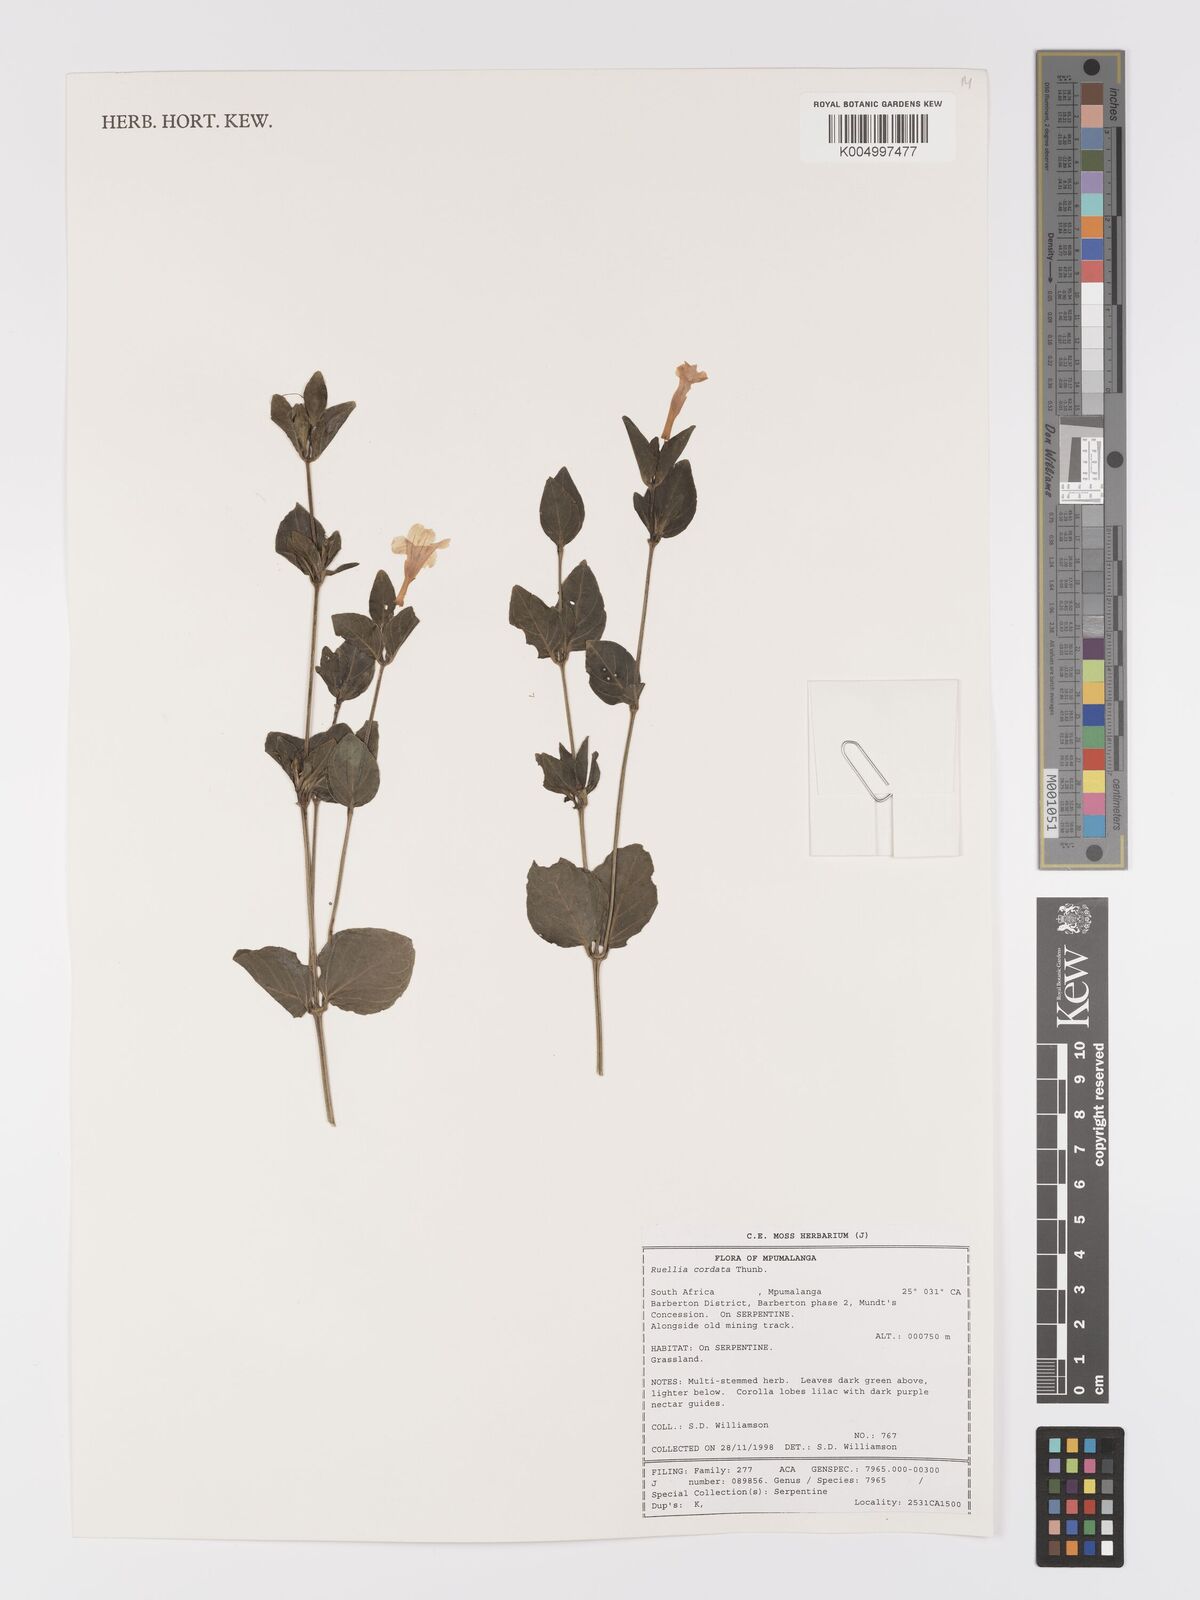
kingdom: Plantae
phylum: Tracheophyta
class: Magnoliopsida
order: Lamiales
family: Acanthaceae
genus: Ruellia
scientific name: Ruellia cordata
